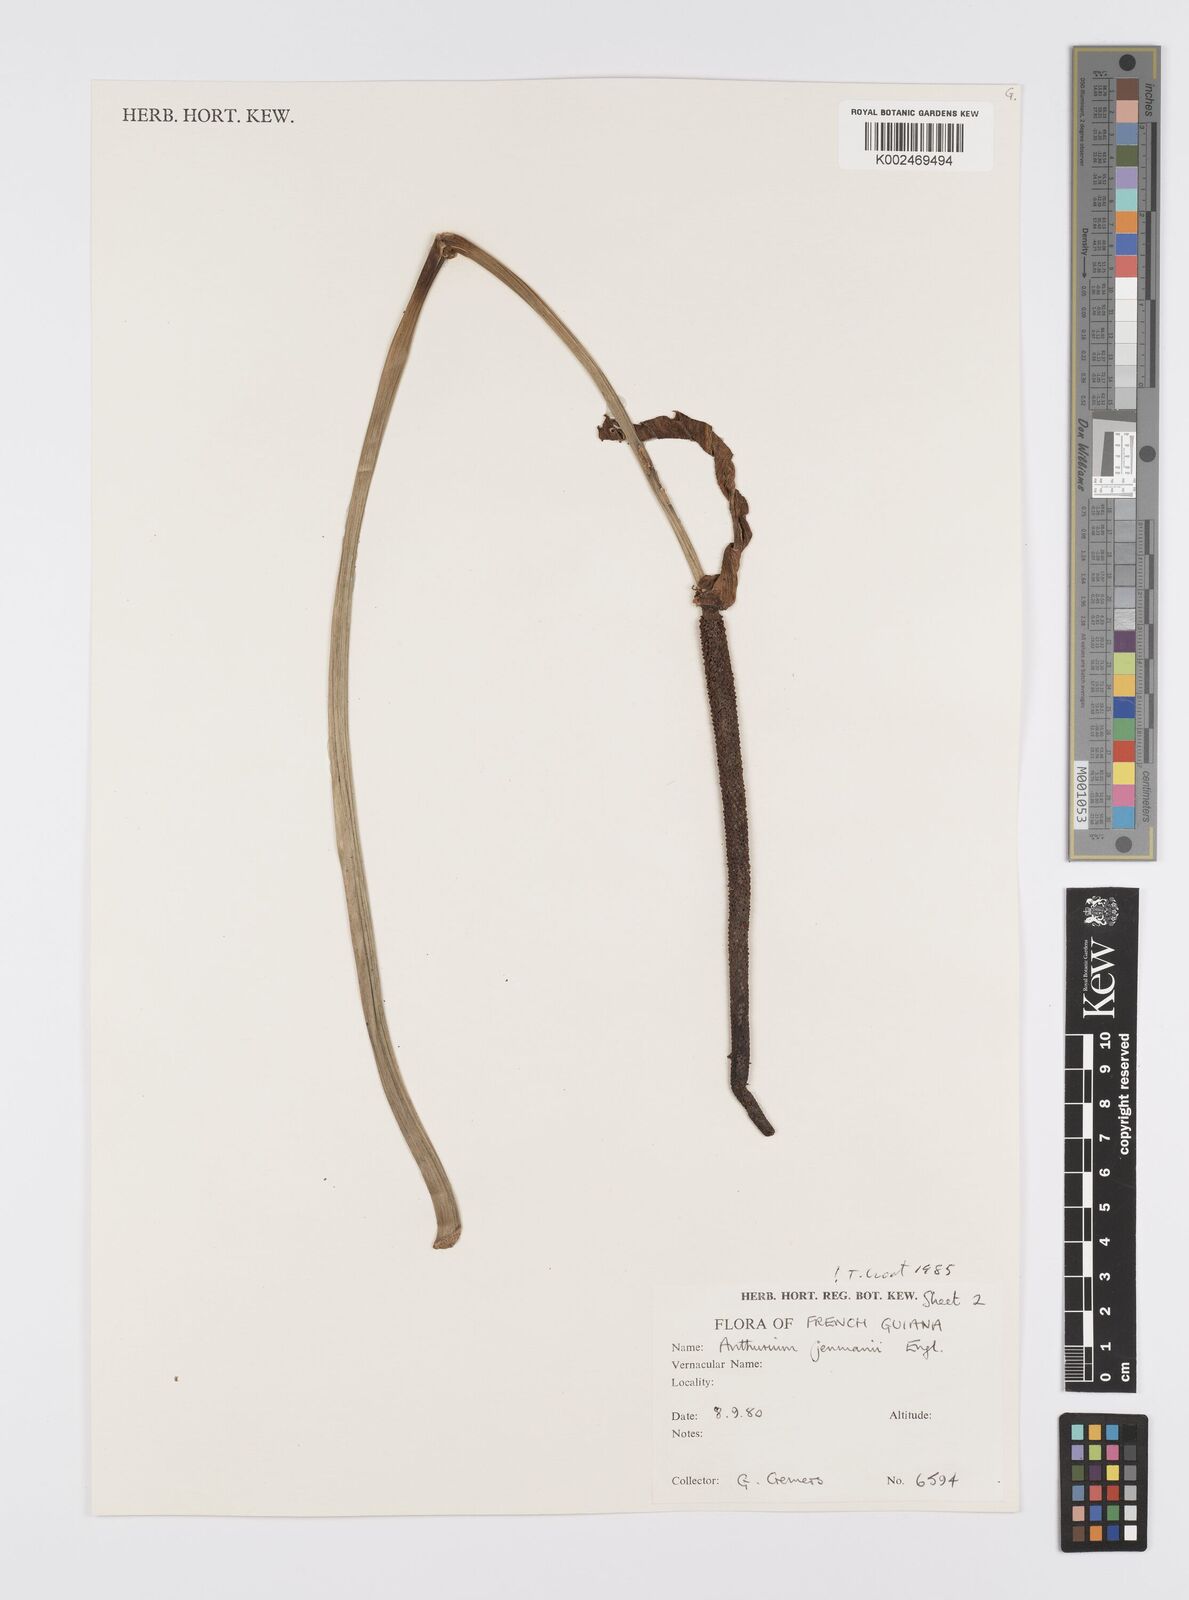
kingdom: Plantae
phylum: Tracheophyta
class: Liliopsida
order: Alismatales
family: Araceae
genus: Anthurium
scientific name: Anthurium jenmanii
